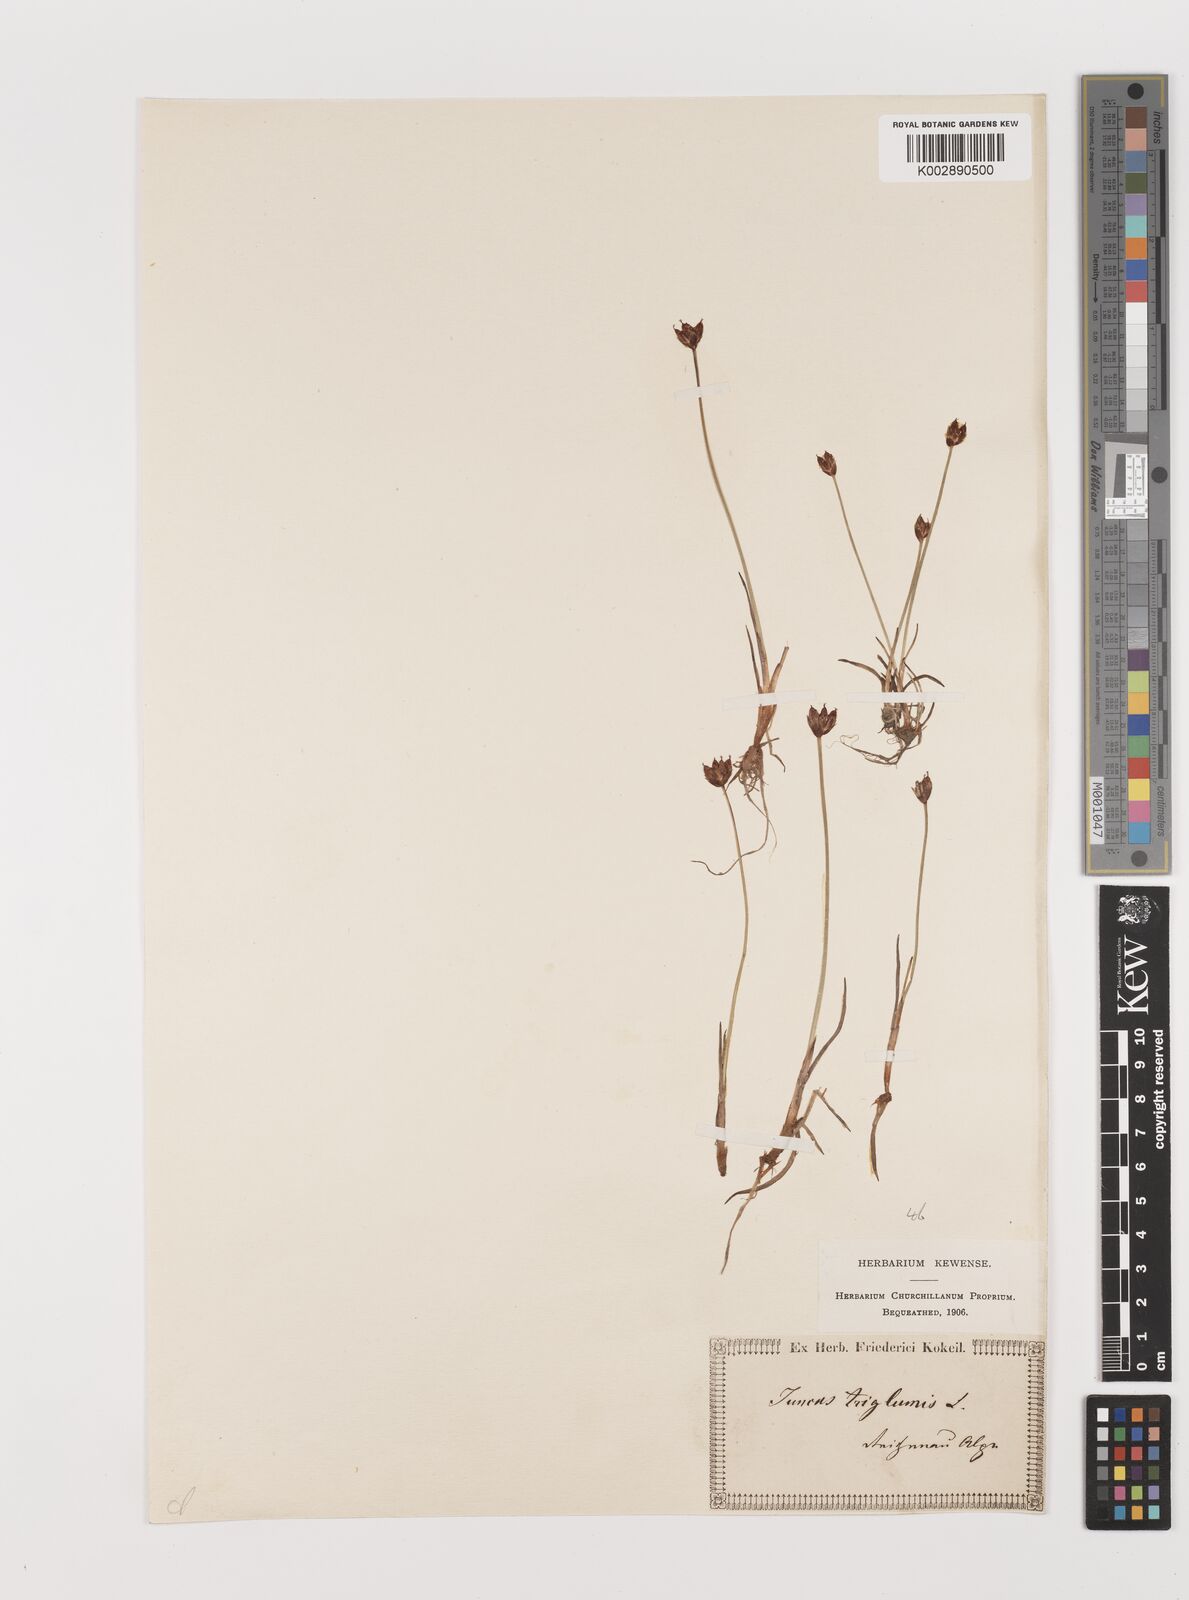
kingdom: Plantae
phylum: Tracheophyta
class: Liliopsida
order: Poales
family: Juncaceae
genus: Juncus
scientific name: Juncus triglumis
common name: Three-flowered rush
